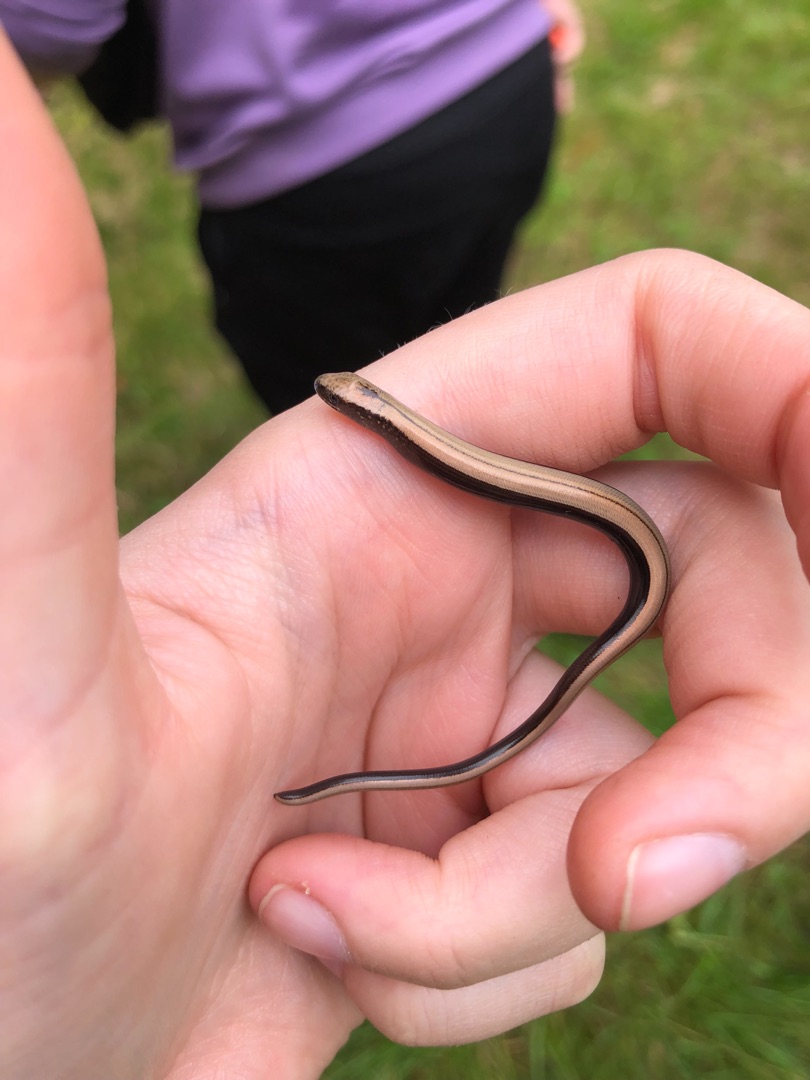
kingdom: Animalia
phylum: Chordata
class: Squamata
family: Anguidae
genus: Anguis
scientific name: Anguis fragilis
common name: Stålorm
